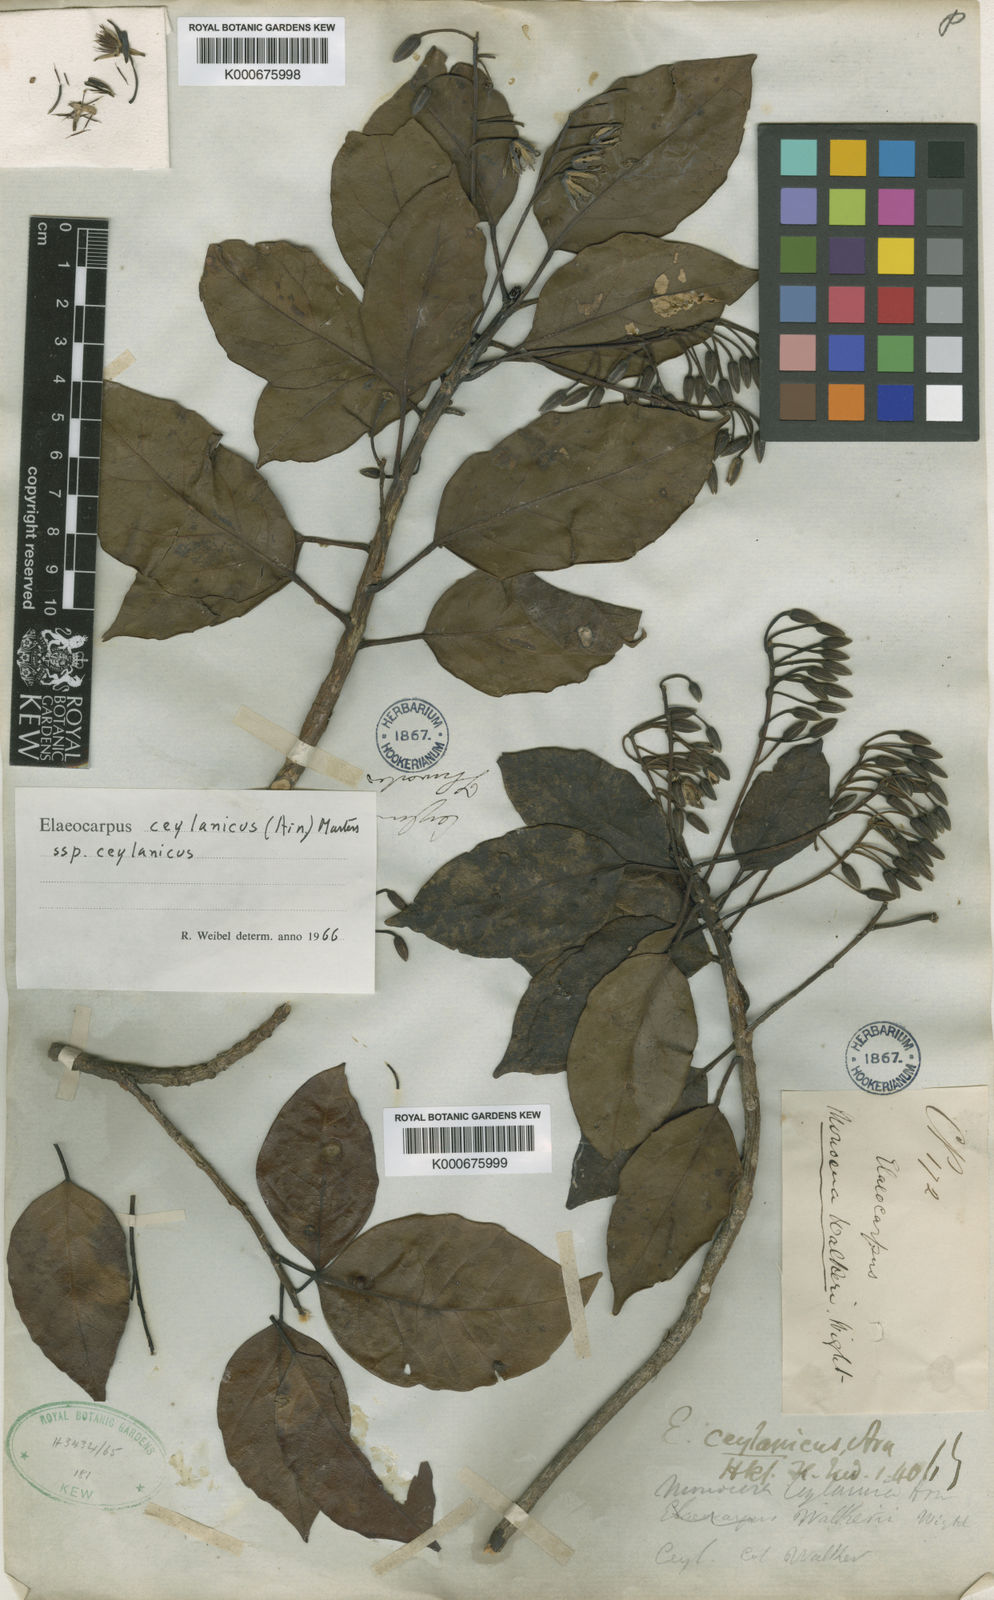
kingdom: Plantae
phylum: Tracheophyta
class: Magnoliopsida
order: Oxalidales
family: Elaeocarpaceae
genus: Elaeocarpus
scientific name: Elaeocarpus ceylanicus
